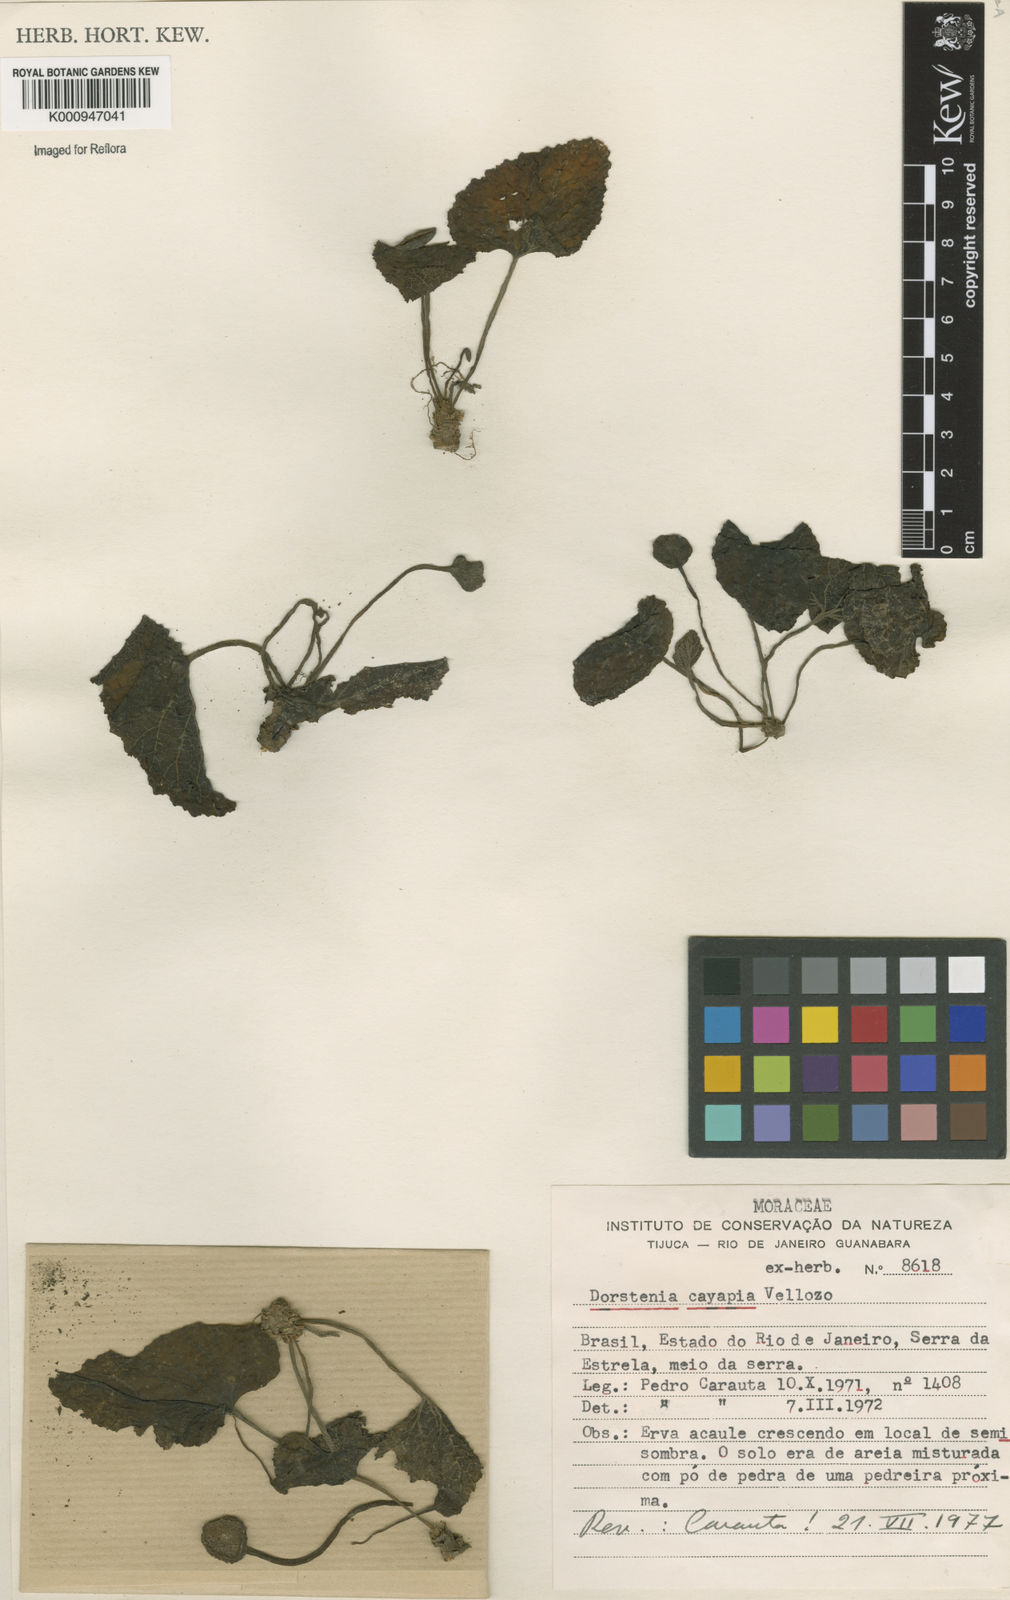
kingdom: Plantae
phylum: Tracheophyta
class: Magnoliopsida
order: Rosales
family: Moraceae
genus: Dorstenia
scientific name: Dorstenia cayapia
